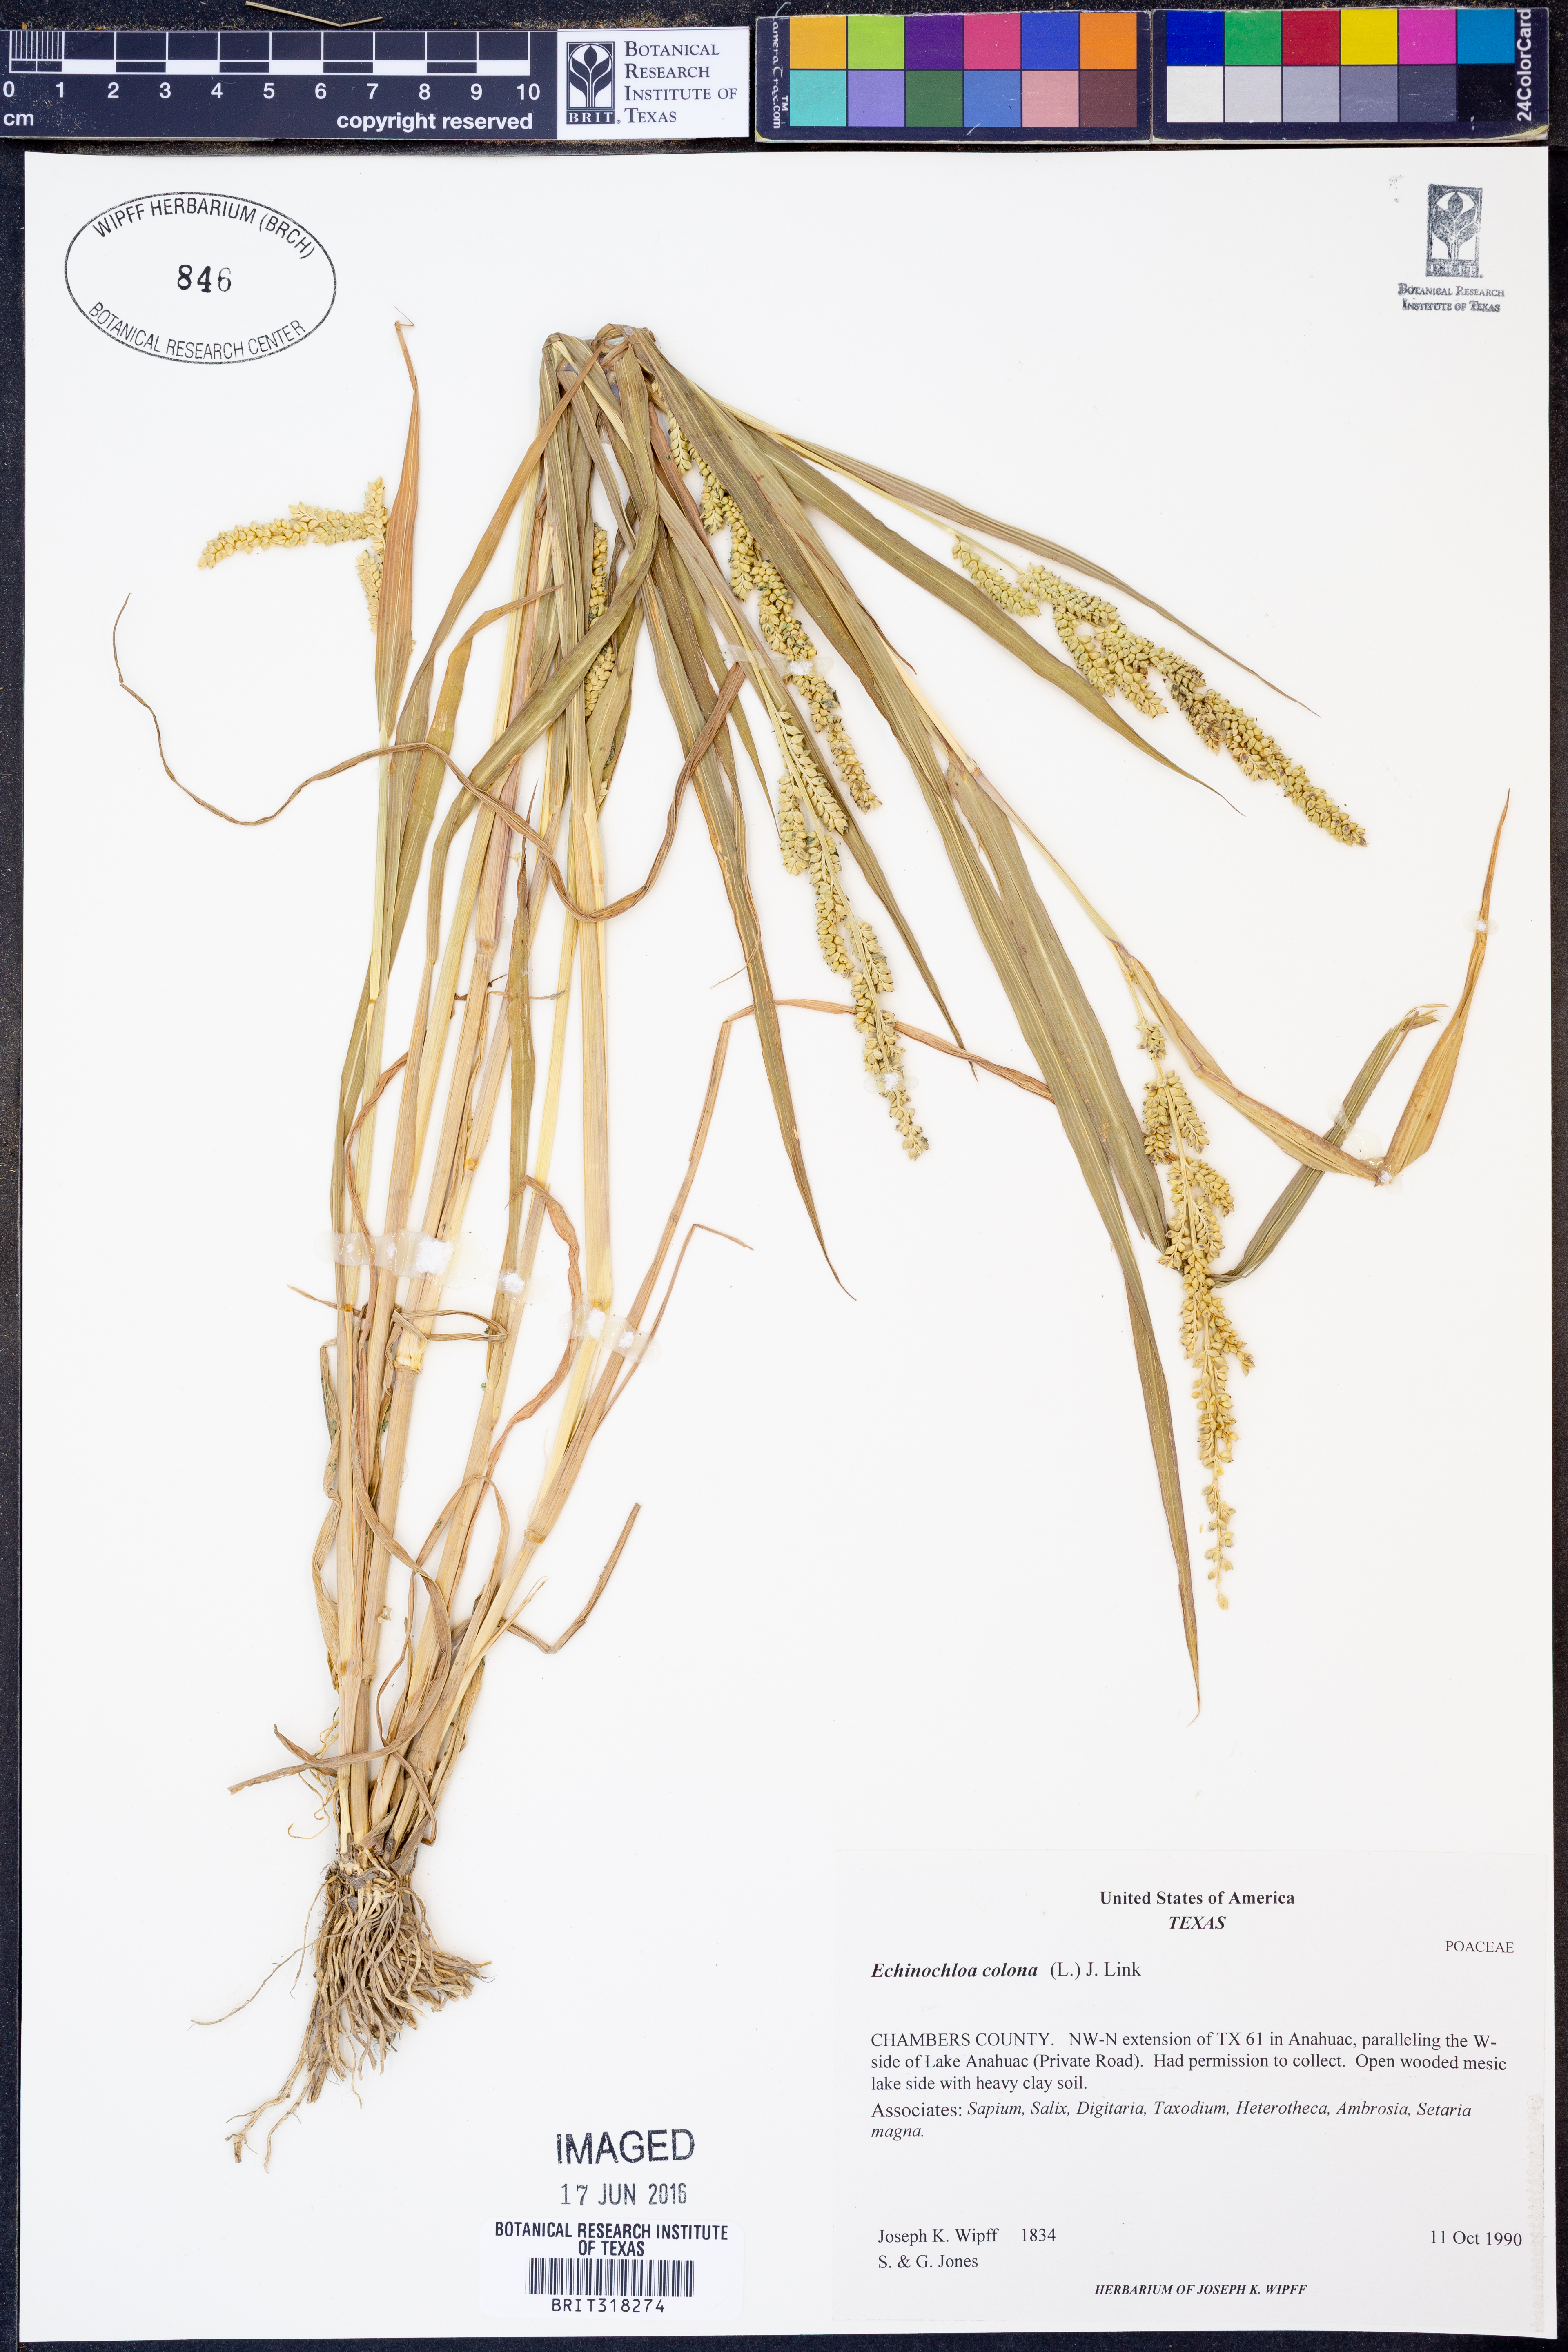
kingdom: Plantae
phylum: Tracheophyta
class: Liliopsida
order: Poales
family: Poaceae
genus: Echinochloa
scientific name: Echinochloa colonum
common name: Jungle rice
